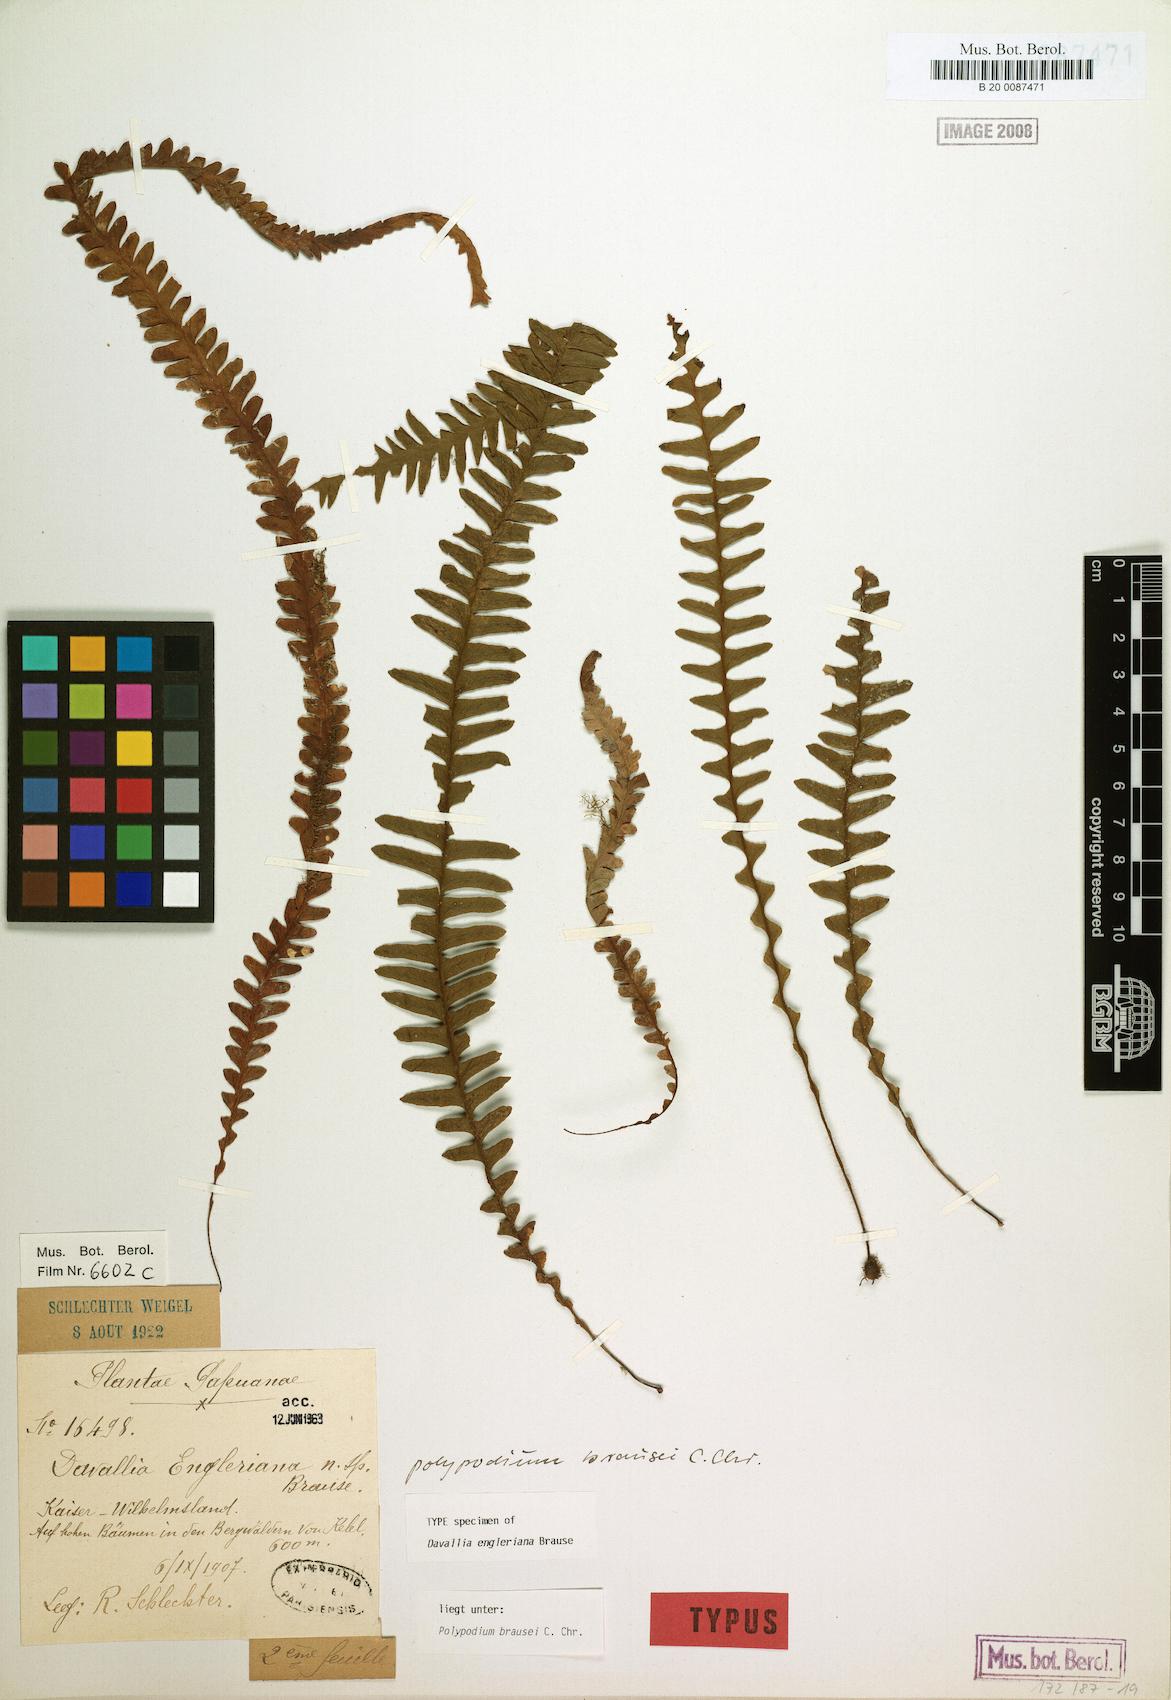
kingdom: Plantae
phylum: Tracheophyta
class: Polypodiopsida
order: Polypodiales
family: Polypodiaceae
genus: Prosaptia
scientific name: Prosaptia engleriana
